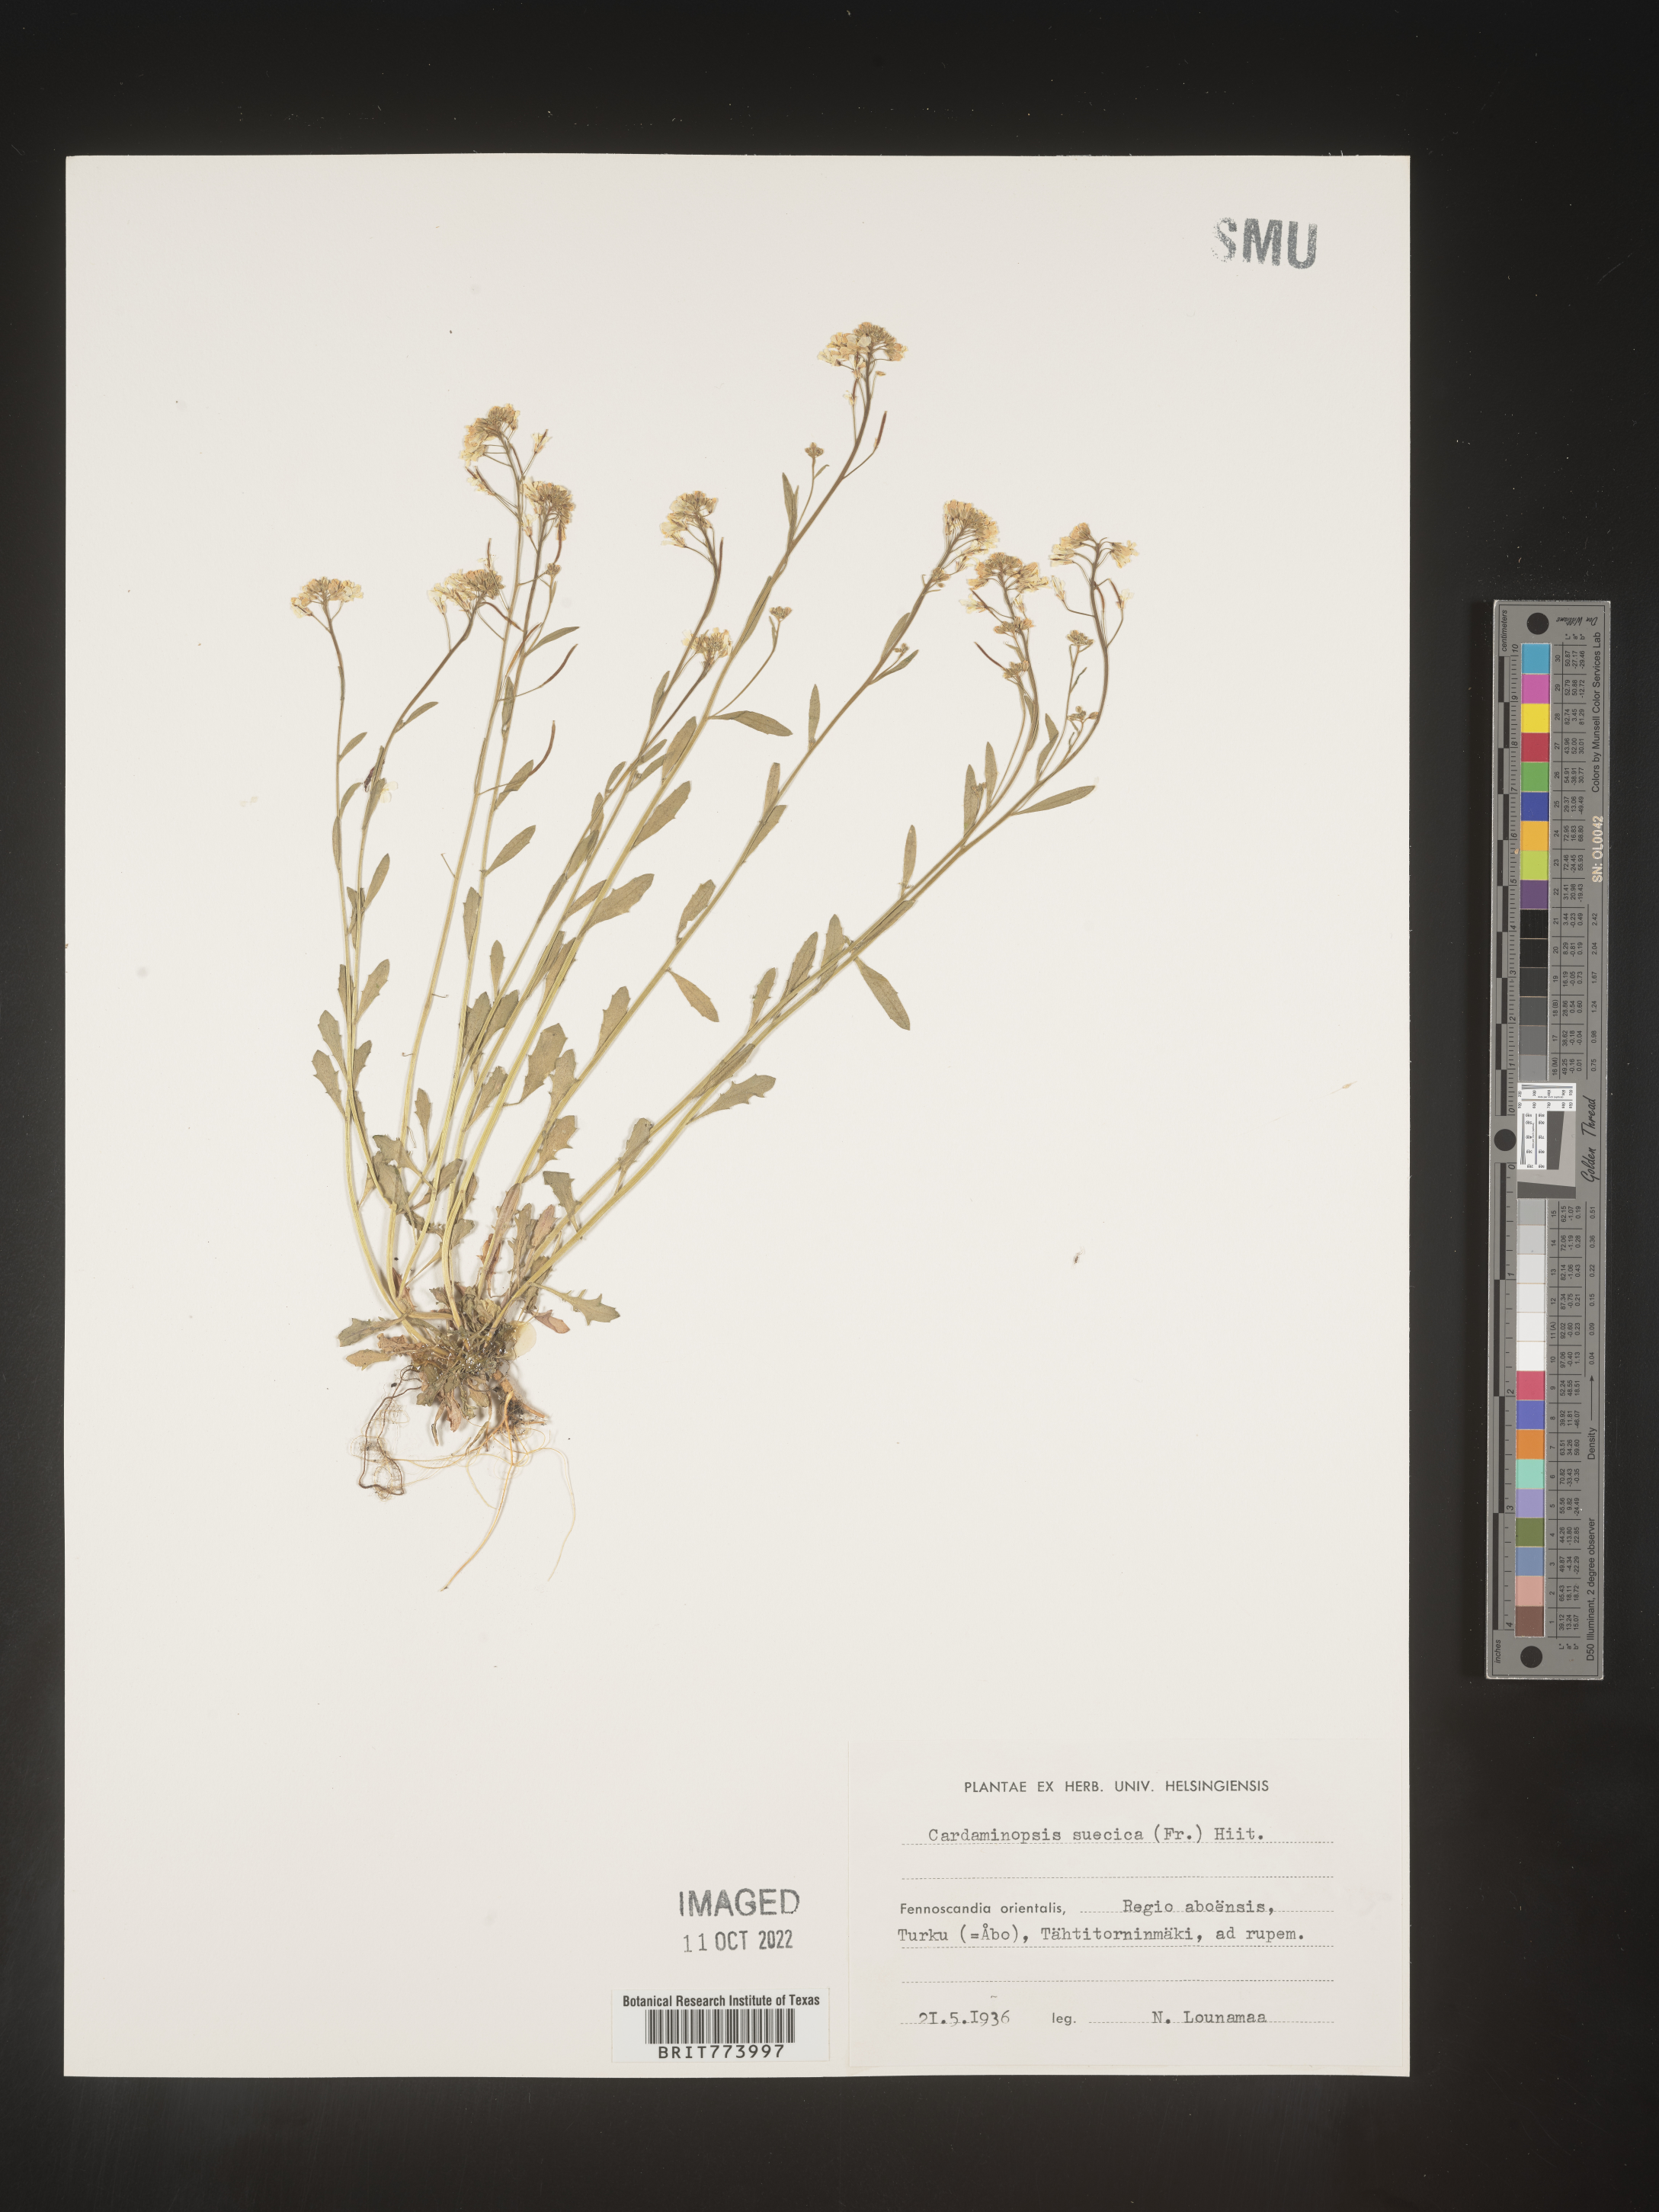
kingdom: Plantae
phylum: Tracheophyta
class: Magnoliopsida
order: Brassicales
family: Brassicaceae
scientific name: Brassicaceae
